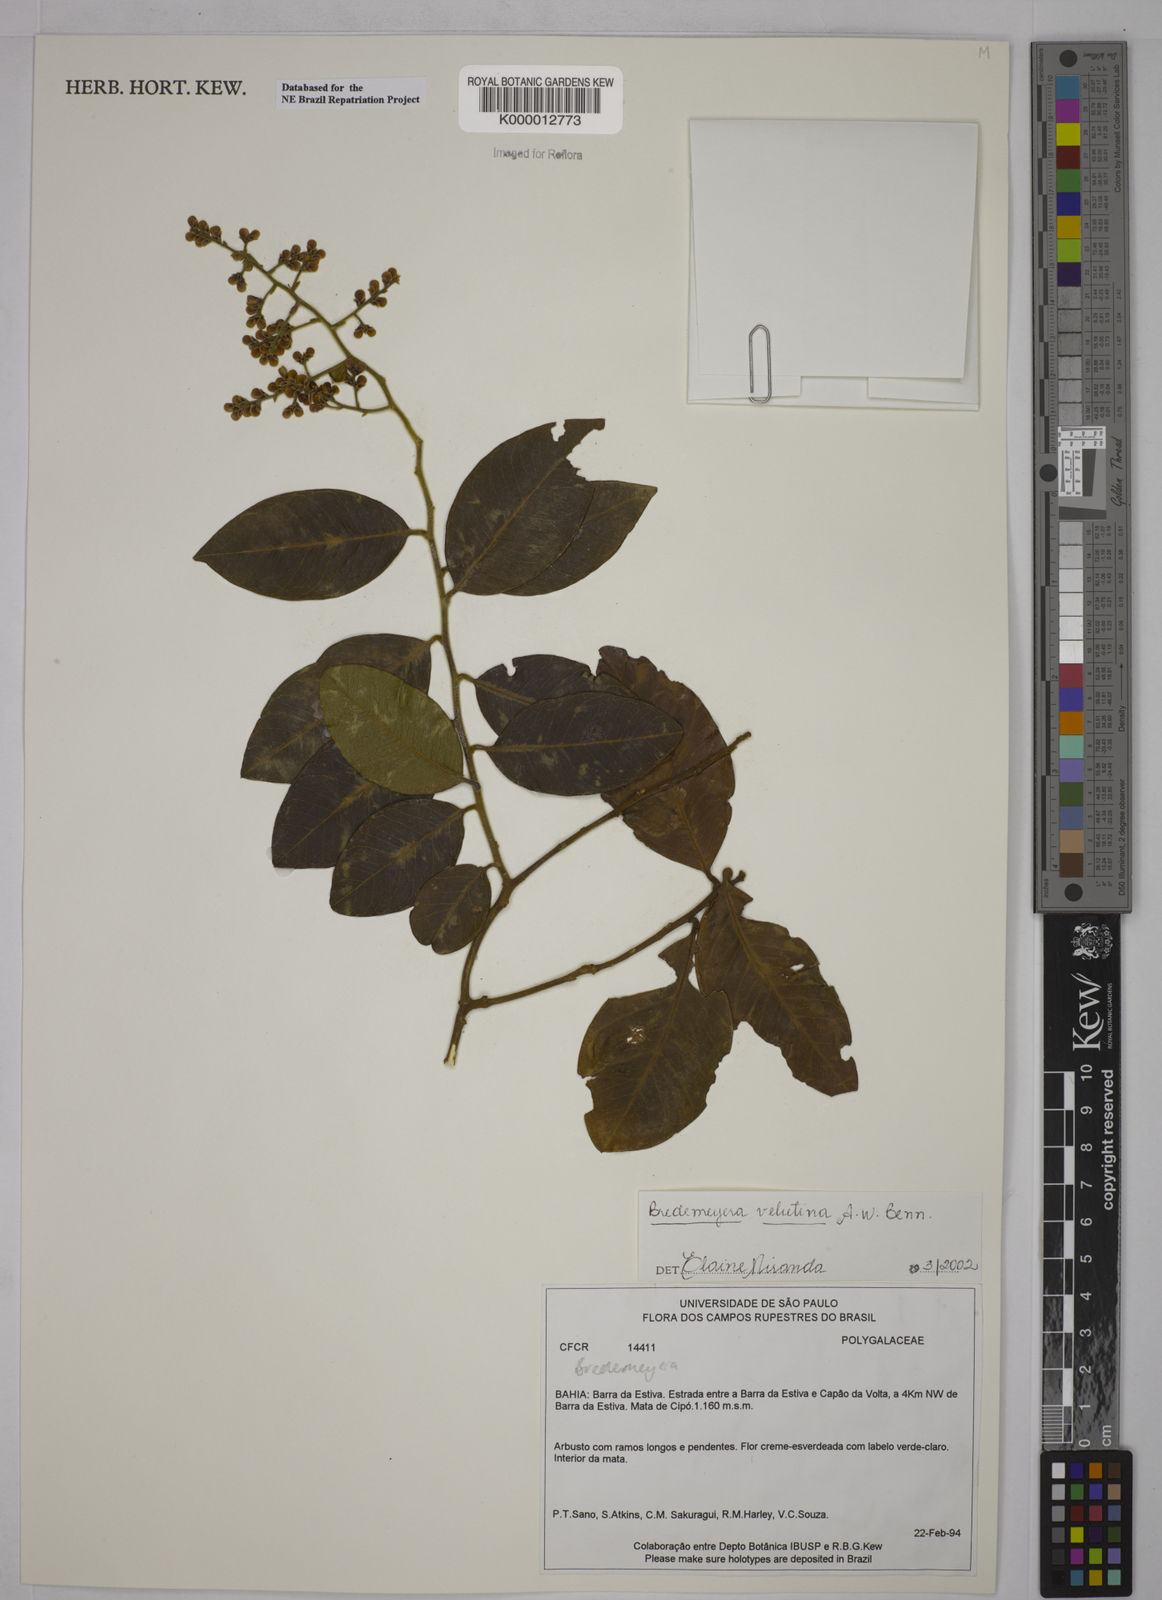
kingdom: Plantae
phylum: Tracheophyta
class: Magnoliopsida
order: Fabales
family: Polygalaceae
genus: Bredemeyera
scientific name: Bredemeyera hebeclada
